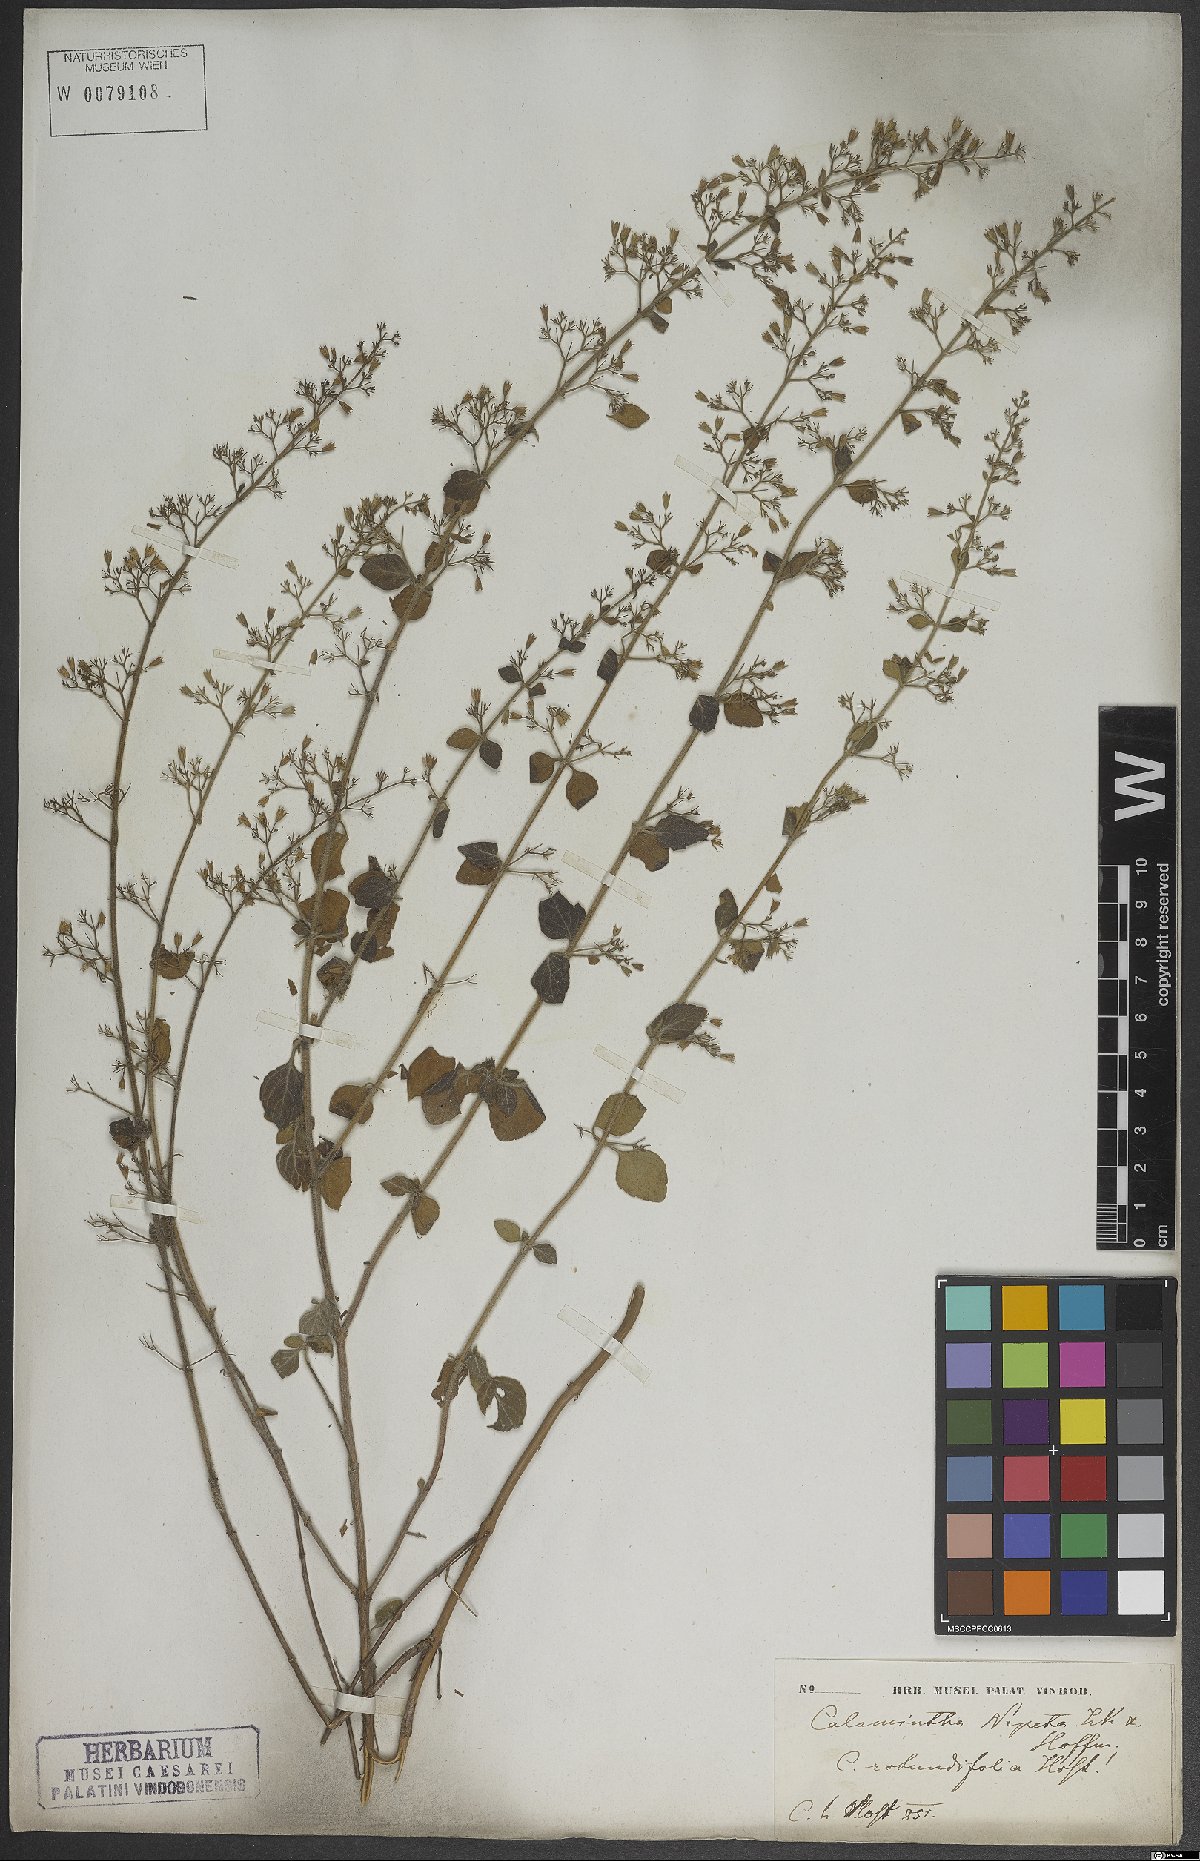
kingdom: Plantae
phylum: Tracheophyta
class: Magnoliopsida
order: Lamiales
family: Lamiaceae
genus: Clinopodium
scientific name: Clinopodium nepeta
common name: Lesser calamint
